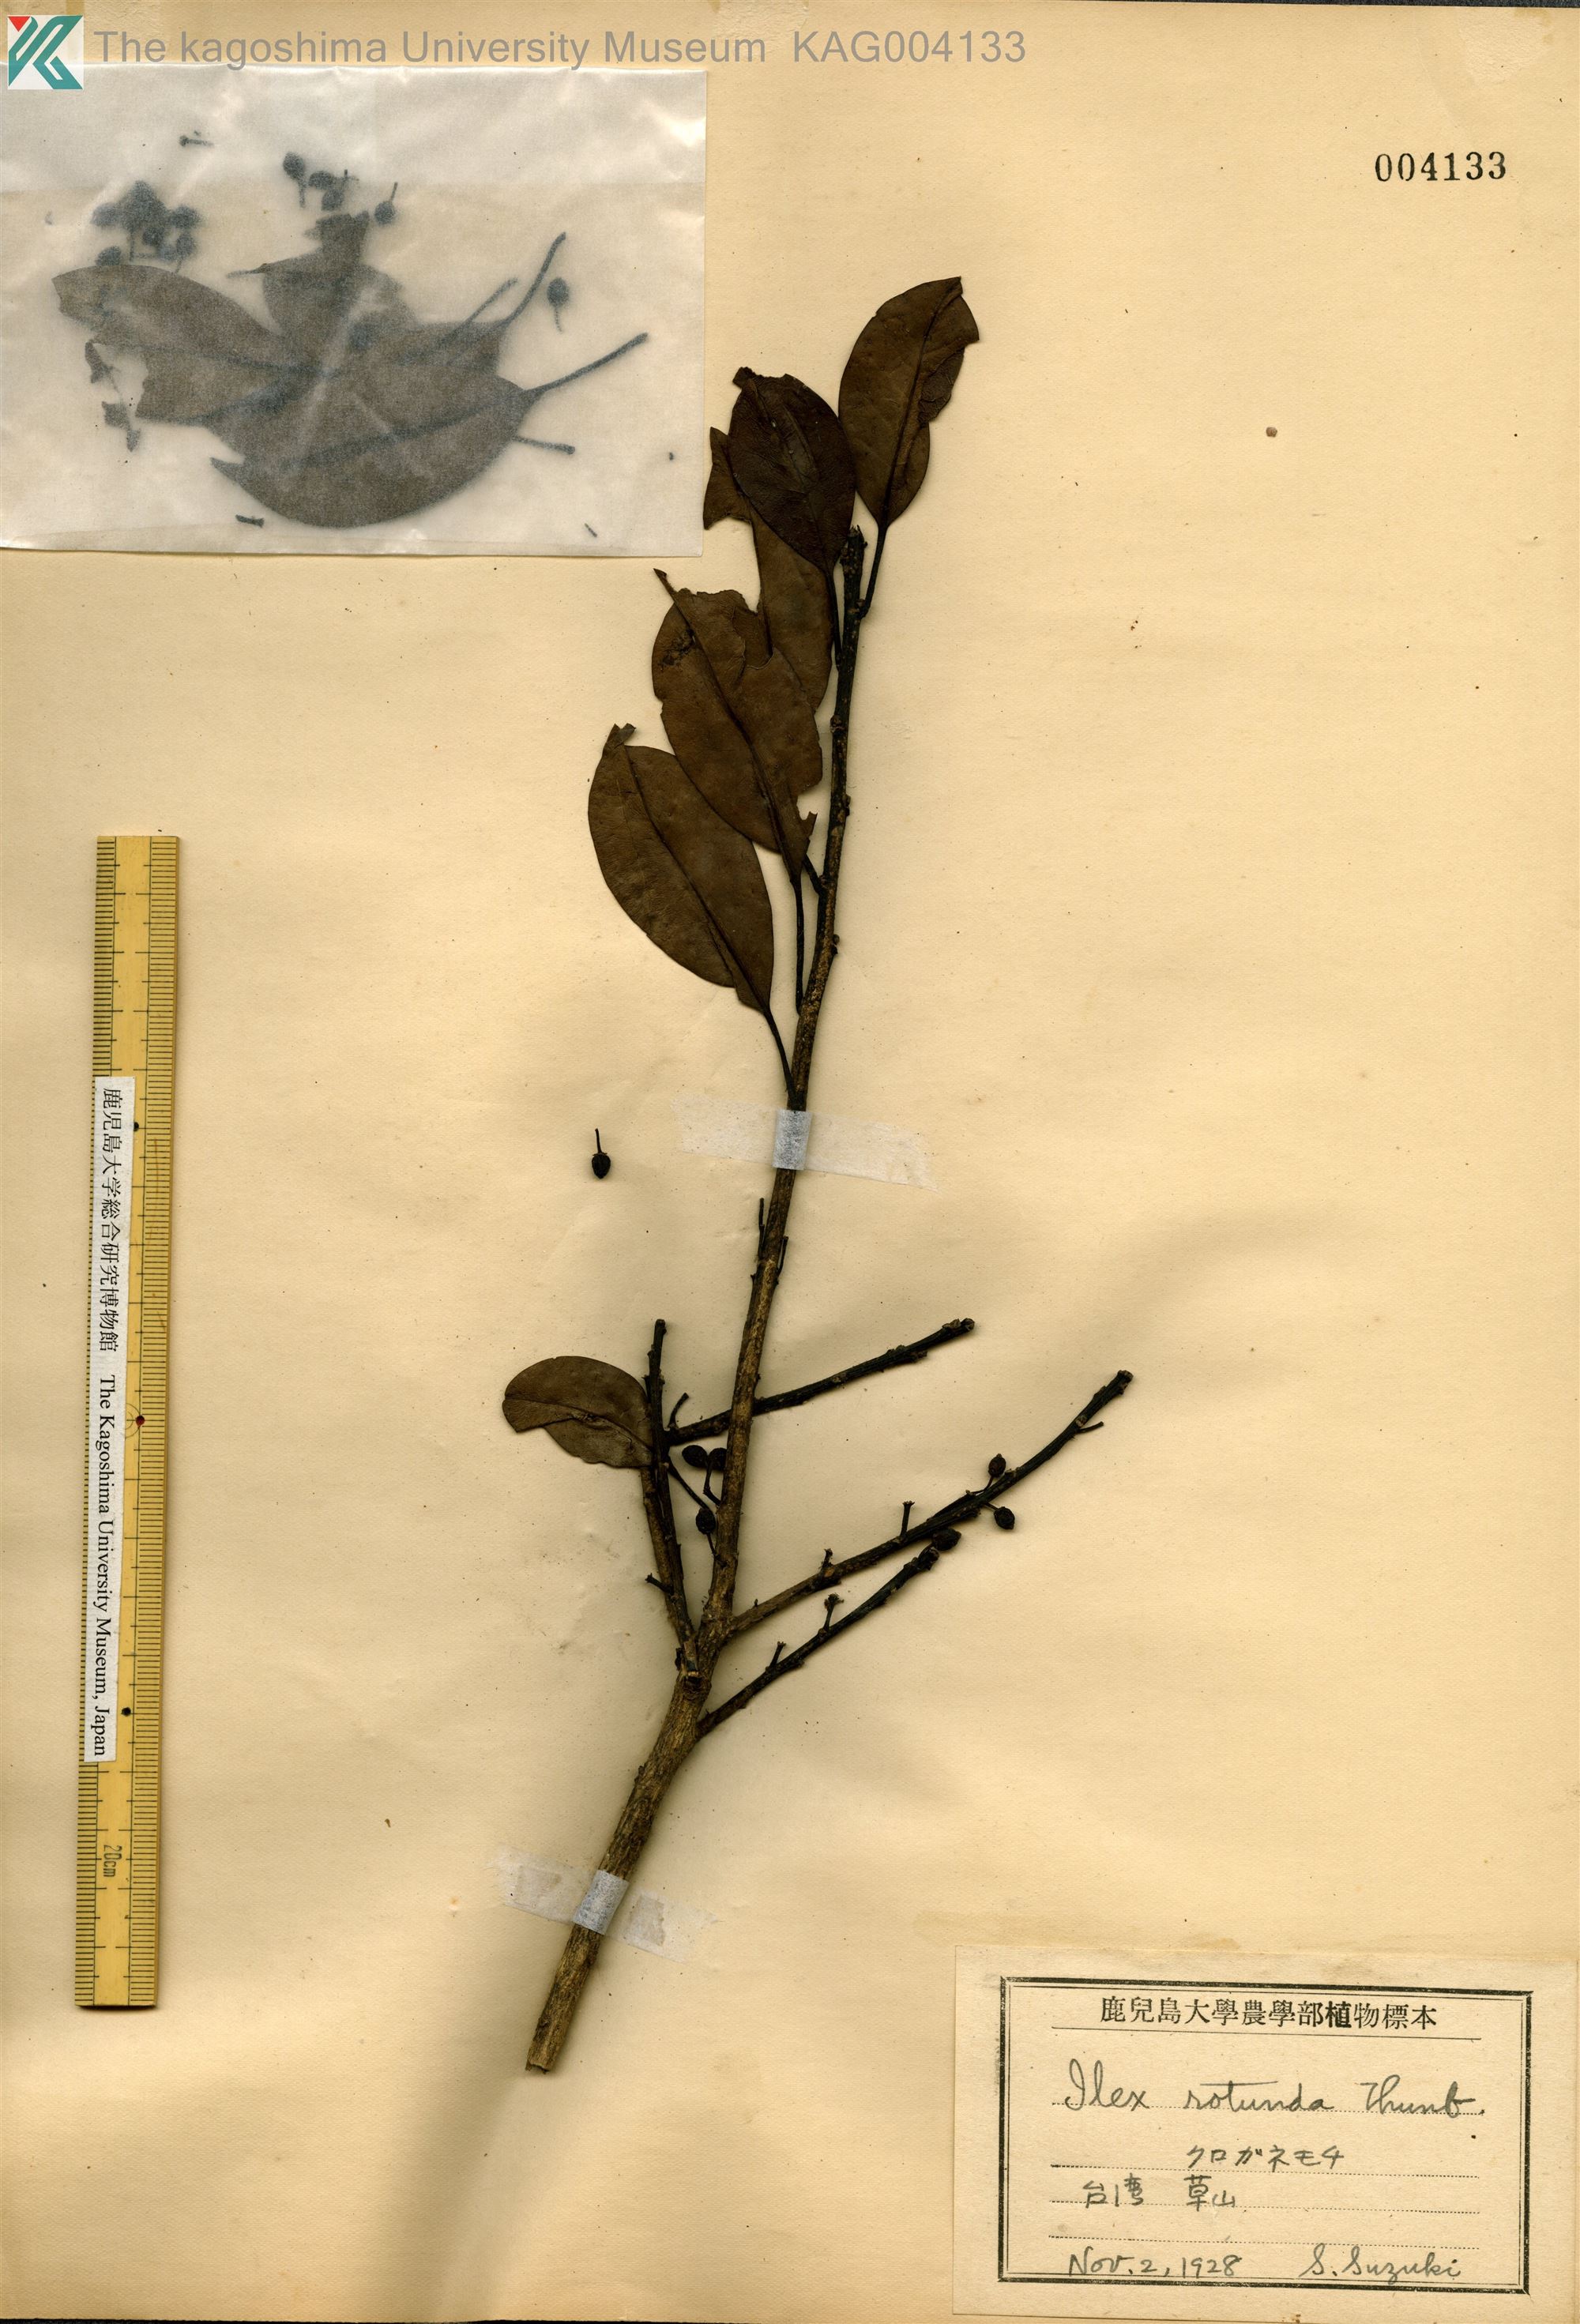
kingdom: Plantae
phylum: Tracheophyta
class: Magnoliopsida
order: Aquifoliales
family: Aquifoliaceae
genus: Ilex
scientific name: Ilex rotunda
